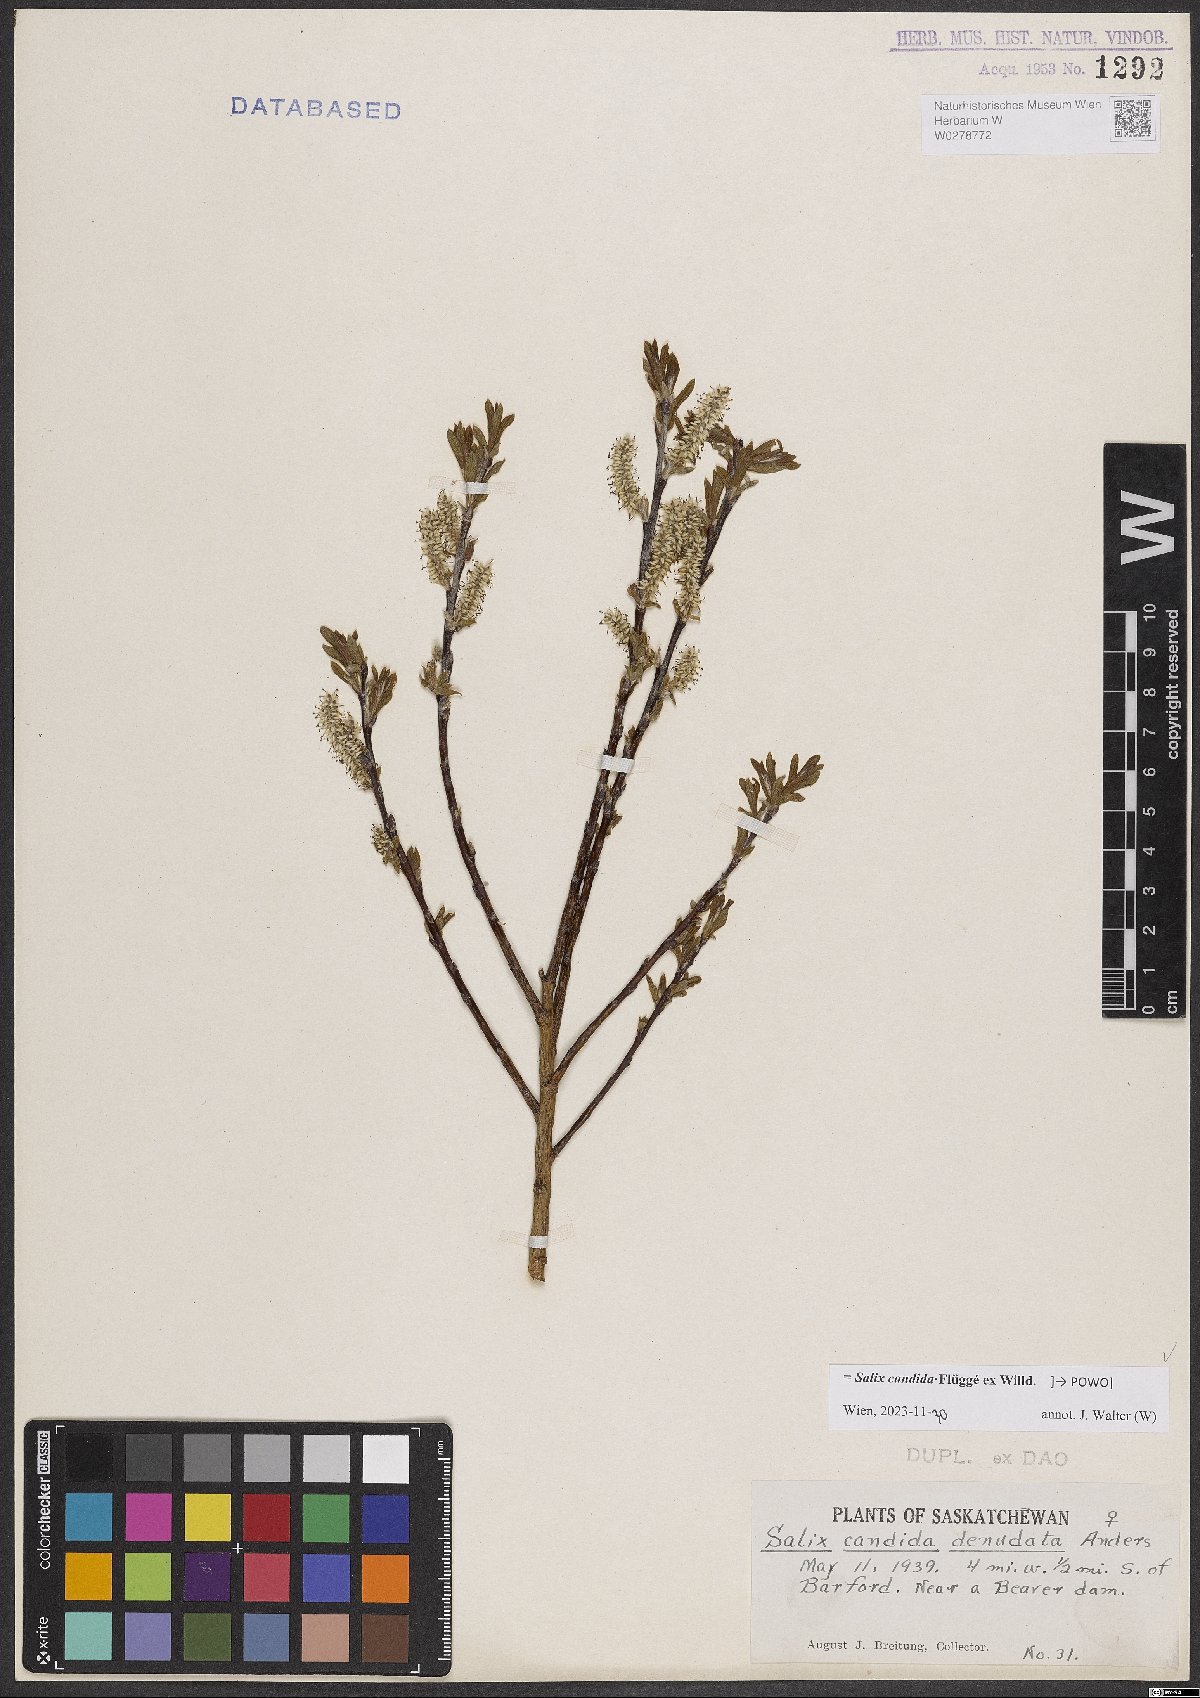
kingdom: Plantae
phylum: Tracheophyta
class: Magnoliopsida
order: Malpighiales
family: Salicaceae
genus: Salix
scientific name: Salix candida
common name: Hoary willow
